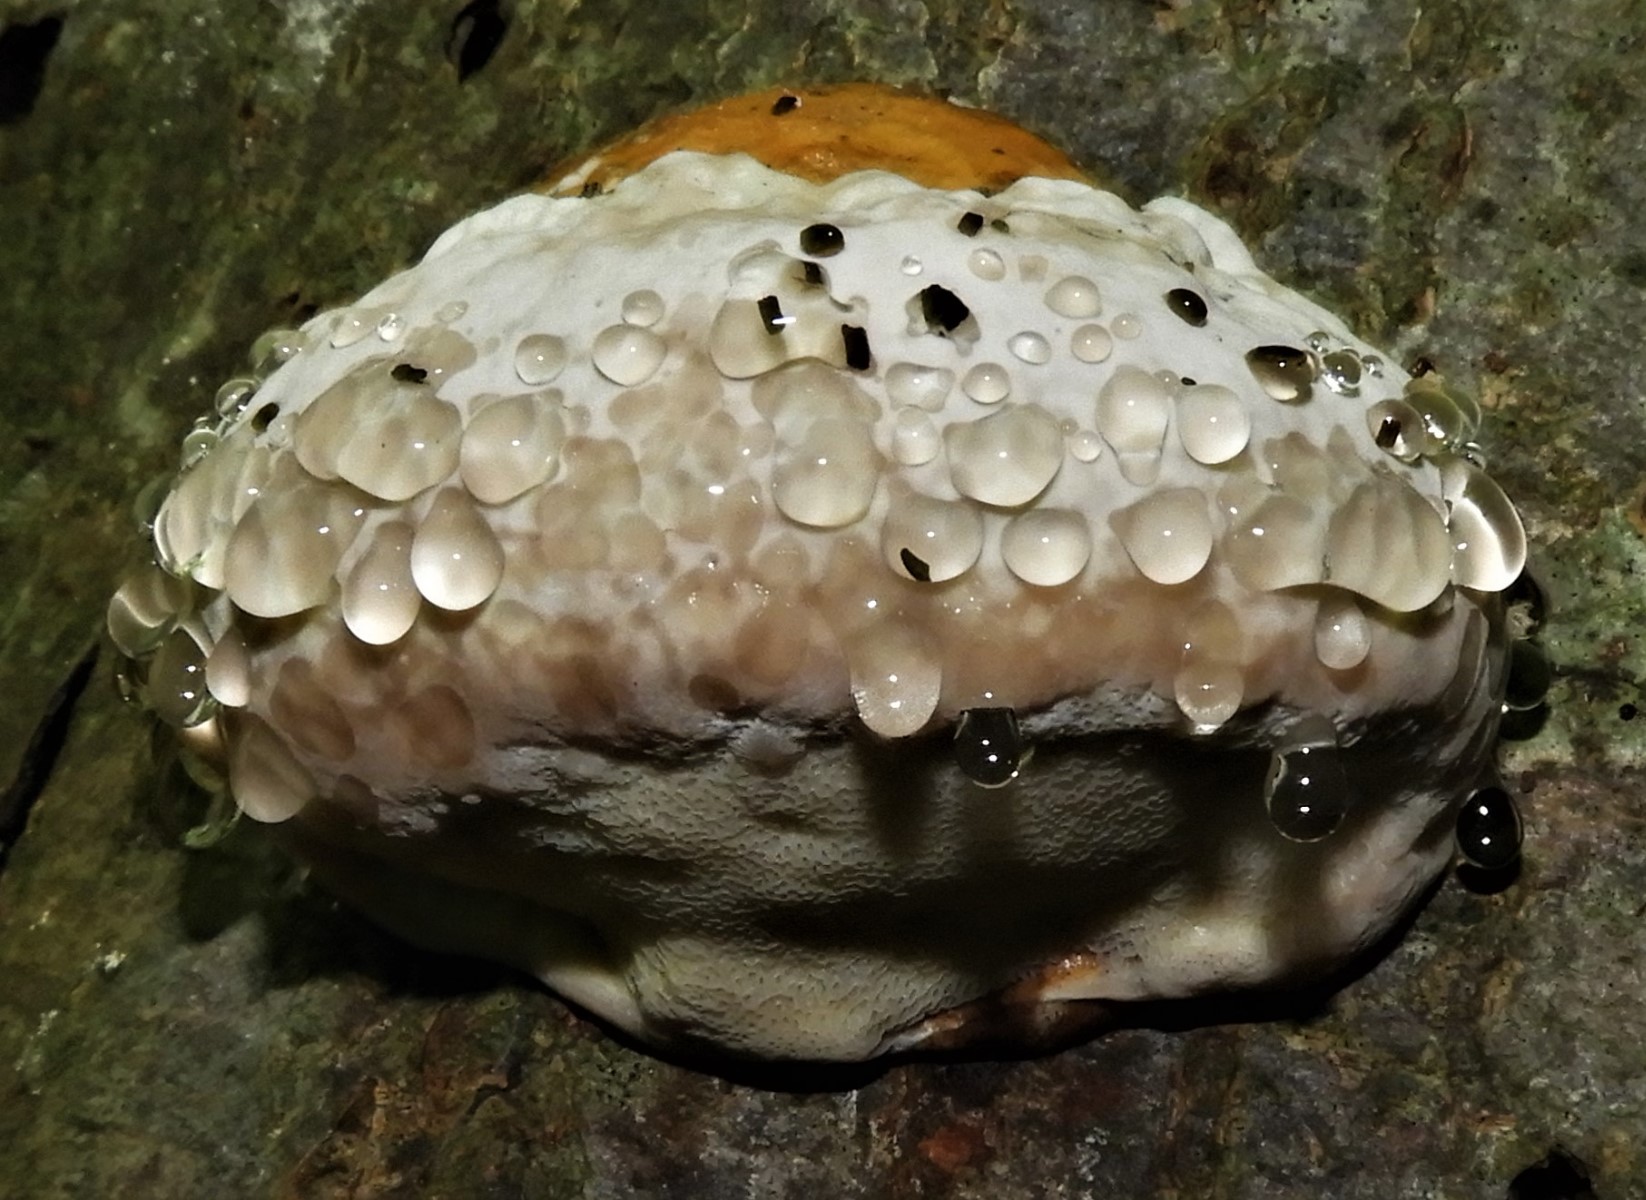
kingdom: Fungi
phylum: Basidiomycota
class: Agaricomycetes
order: Polyporales
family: Fomitopsidaceae
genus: Fomitopsis
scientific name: Fomitopsis pinicola
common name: randbæltet hovporesvamp
